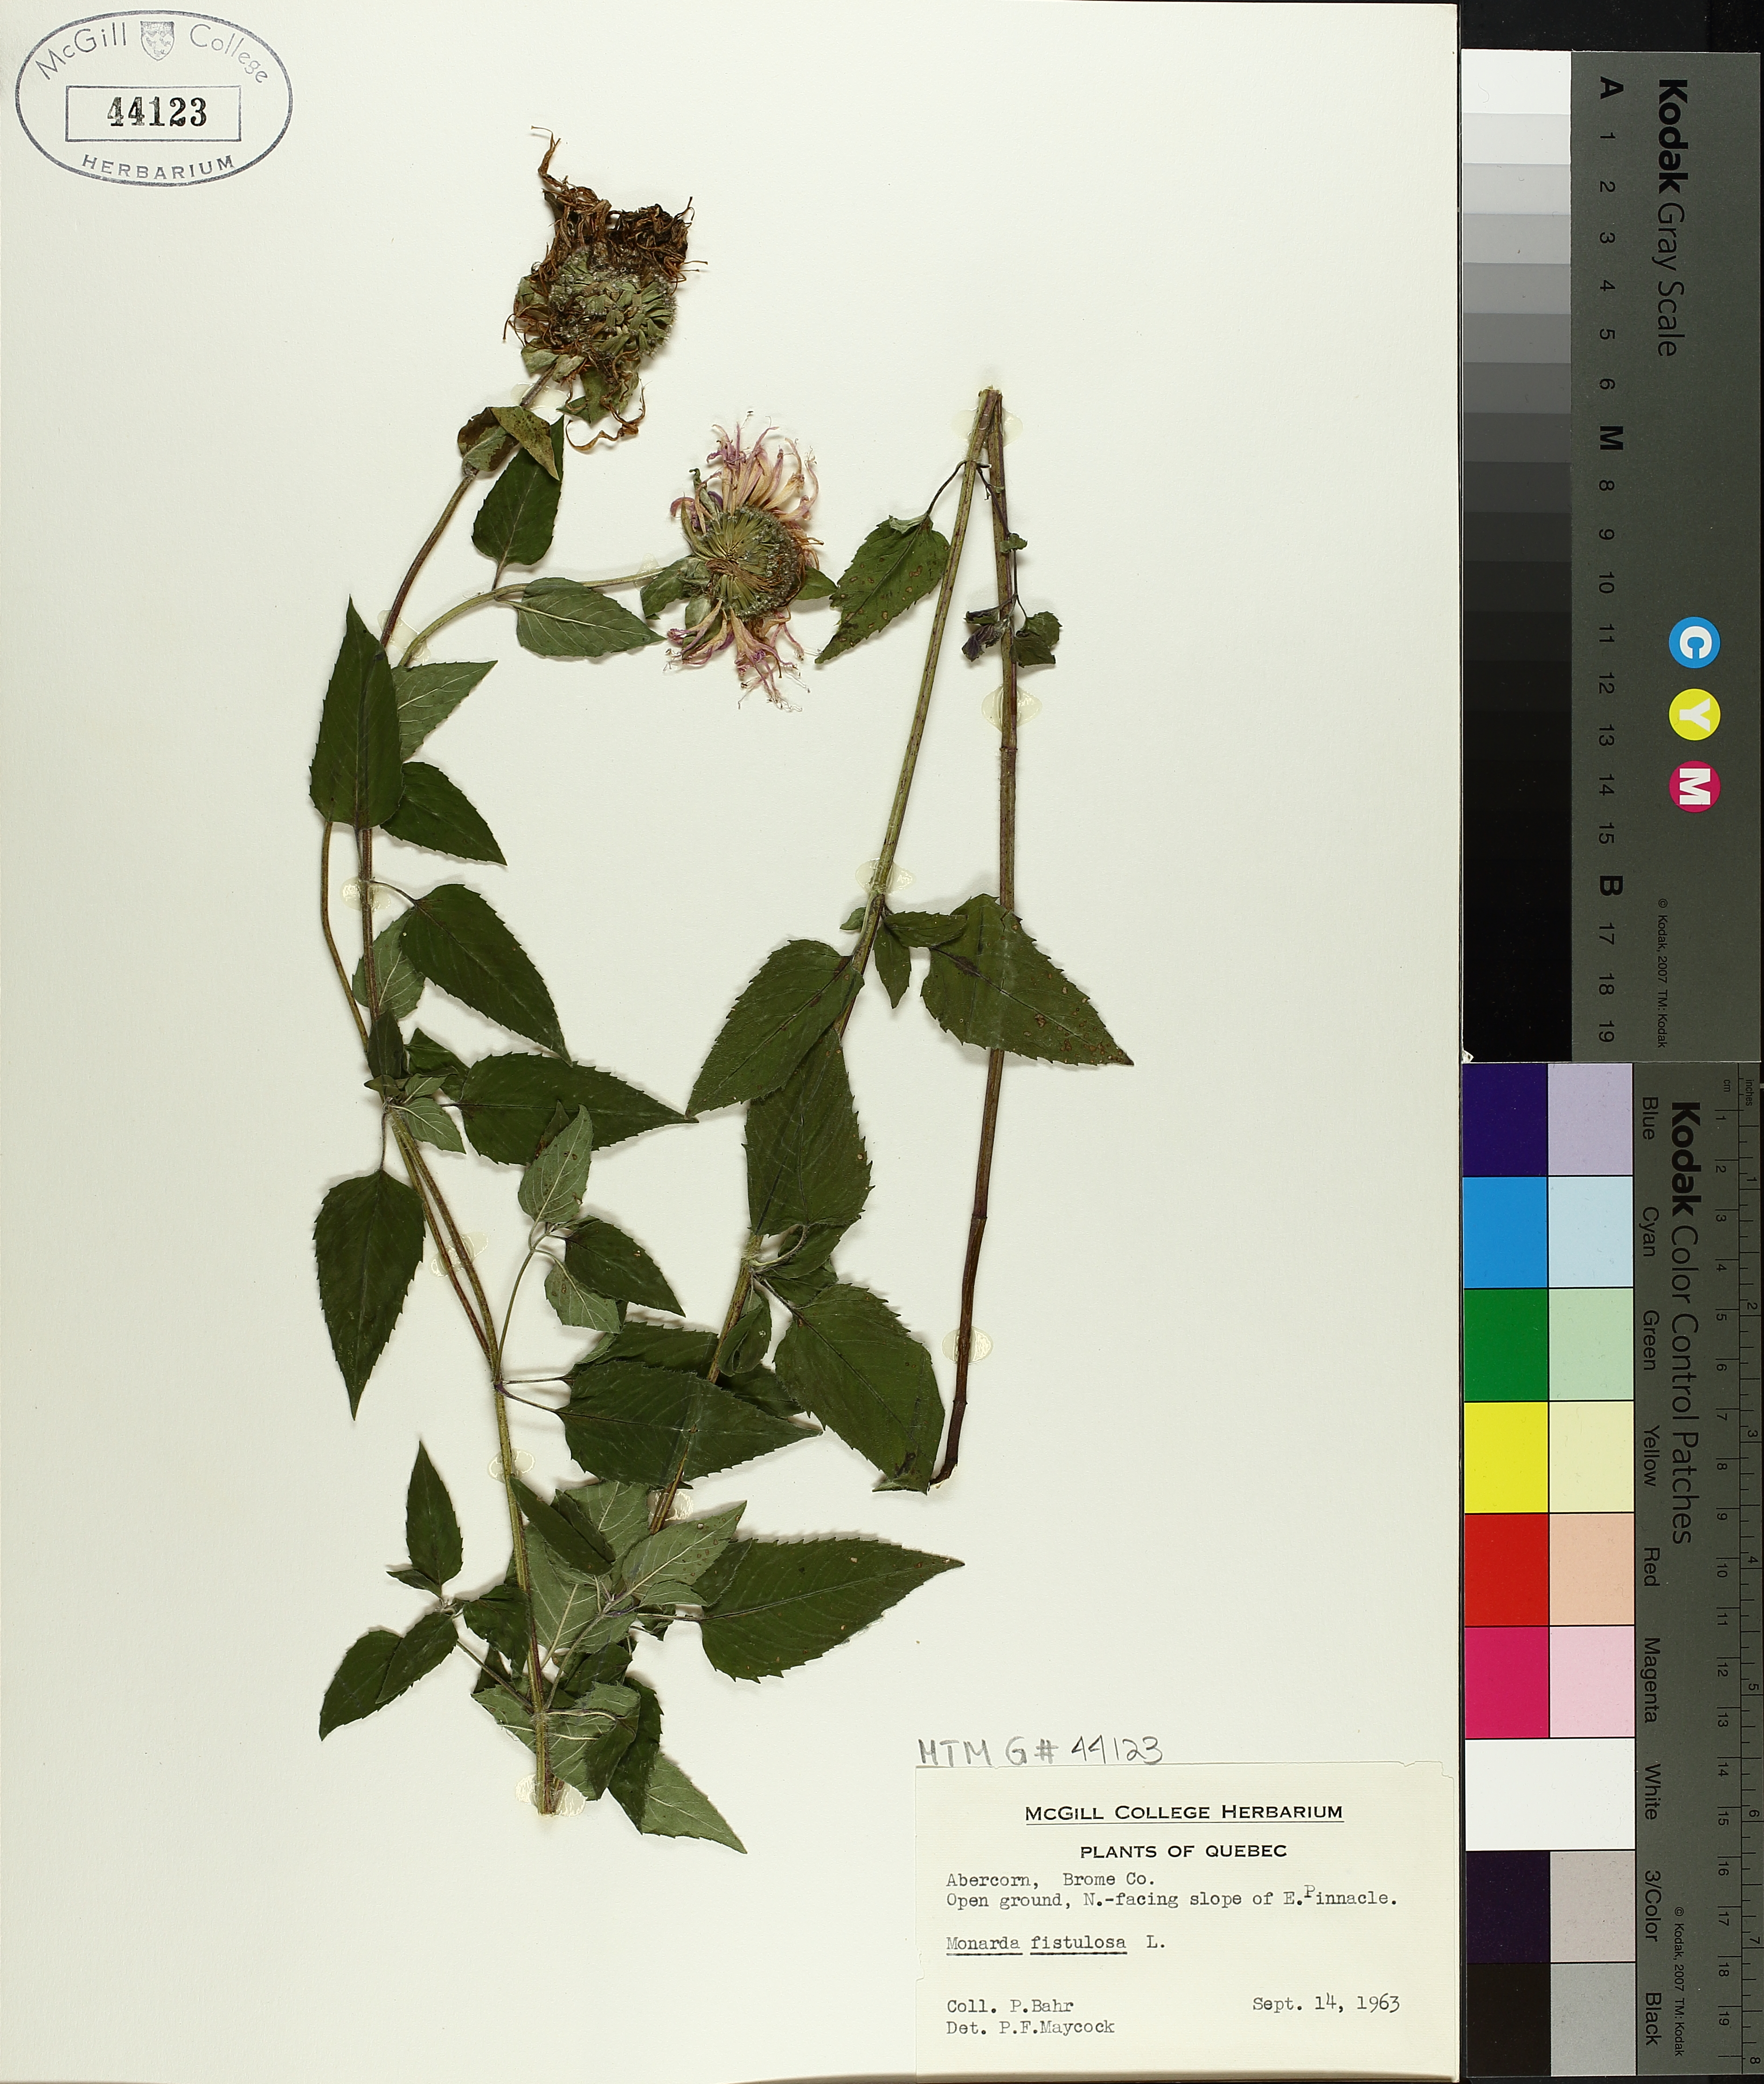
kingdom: Plantae
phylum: Tracheophyta
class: Magnoliopsida
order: Lamiales
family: Lamiaceae
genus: Monarda
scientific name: Monarda fistulosa
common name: Purple beebalm
